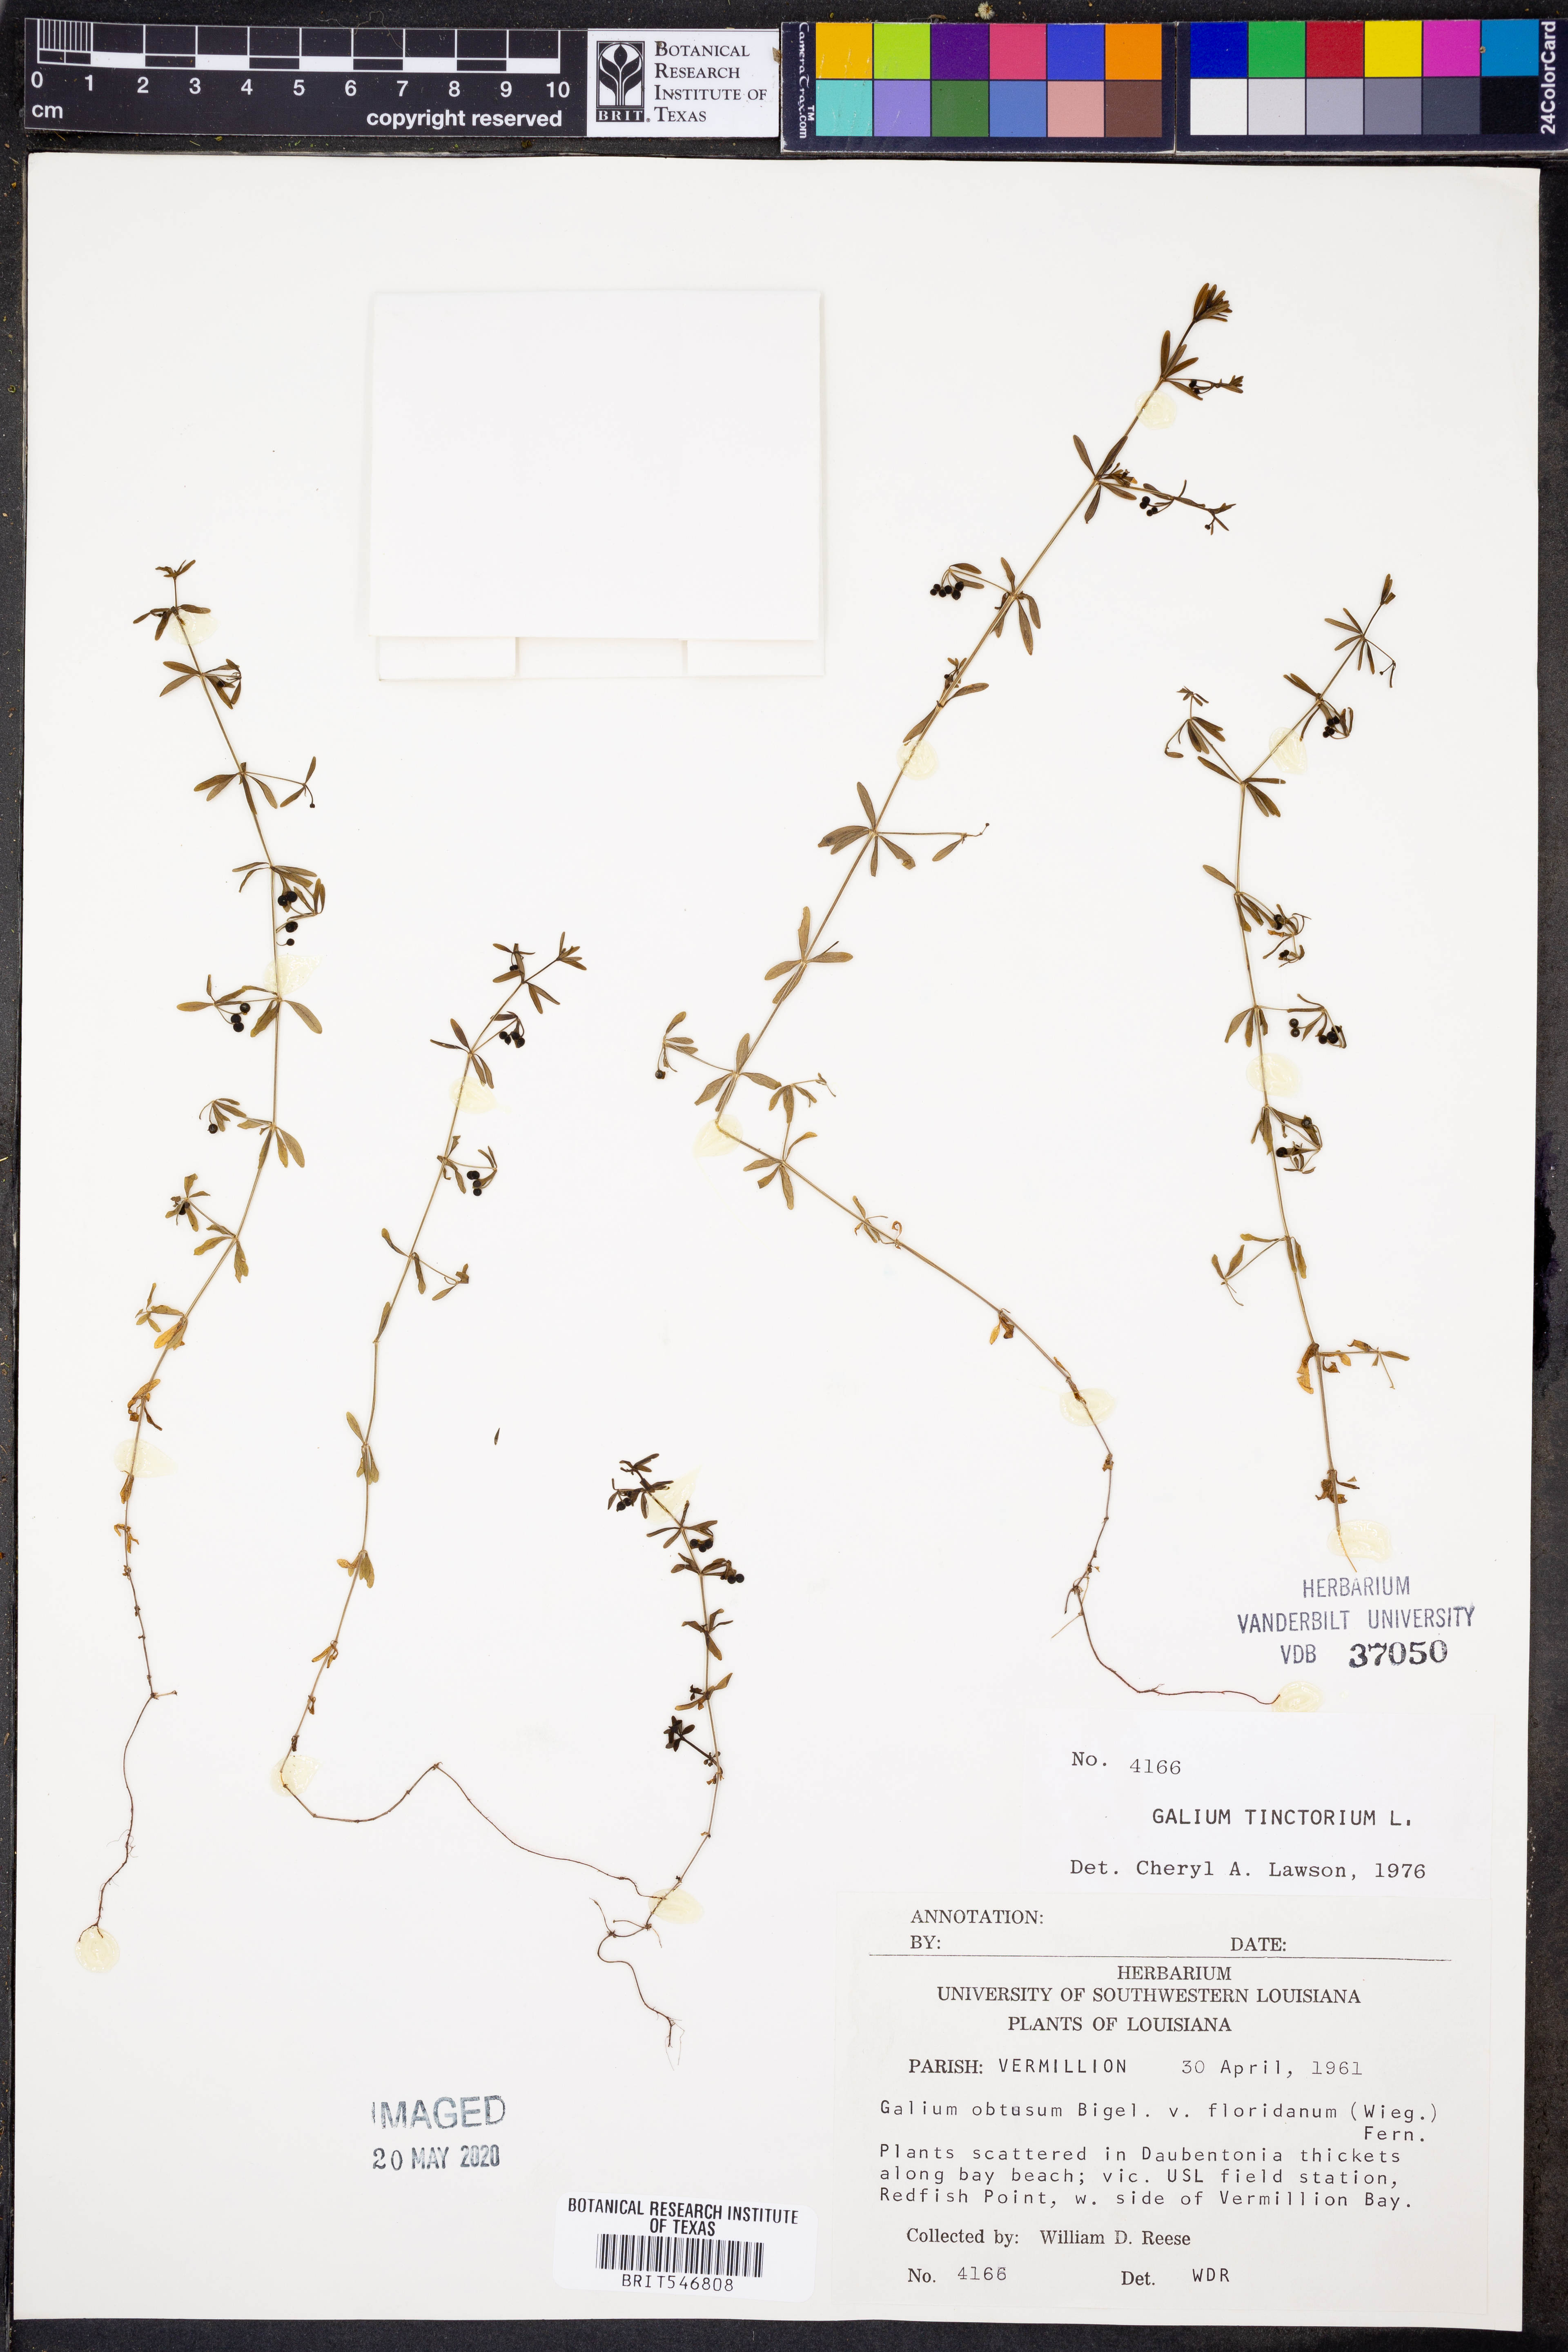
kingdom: Plantae
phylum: Tracheophyta
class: Magnoliopsida
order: Gentianales
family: Rubiaceae
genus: Asperula
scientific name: Asperula tinctoria
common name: Dyer's woodruff
